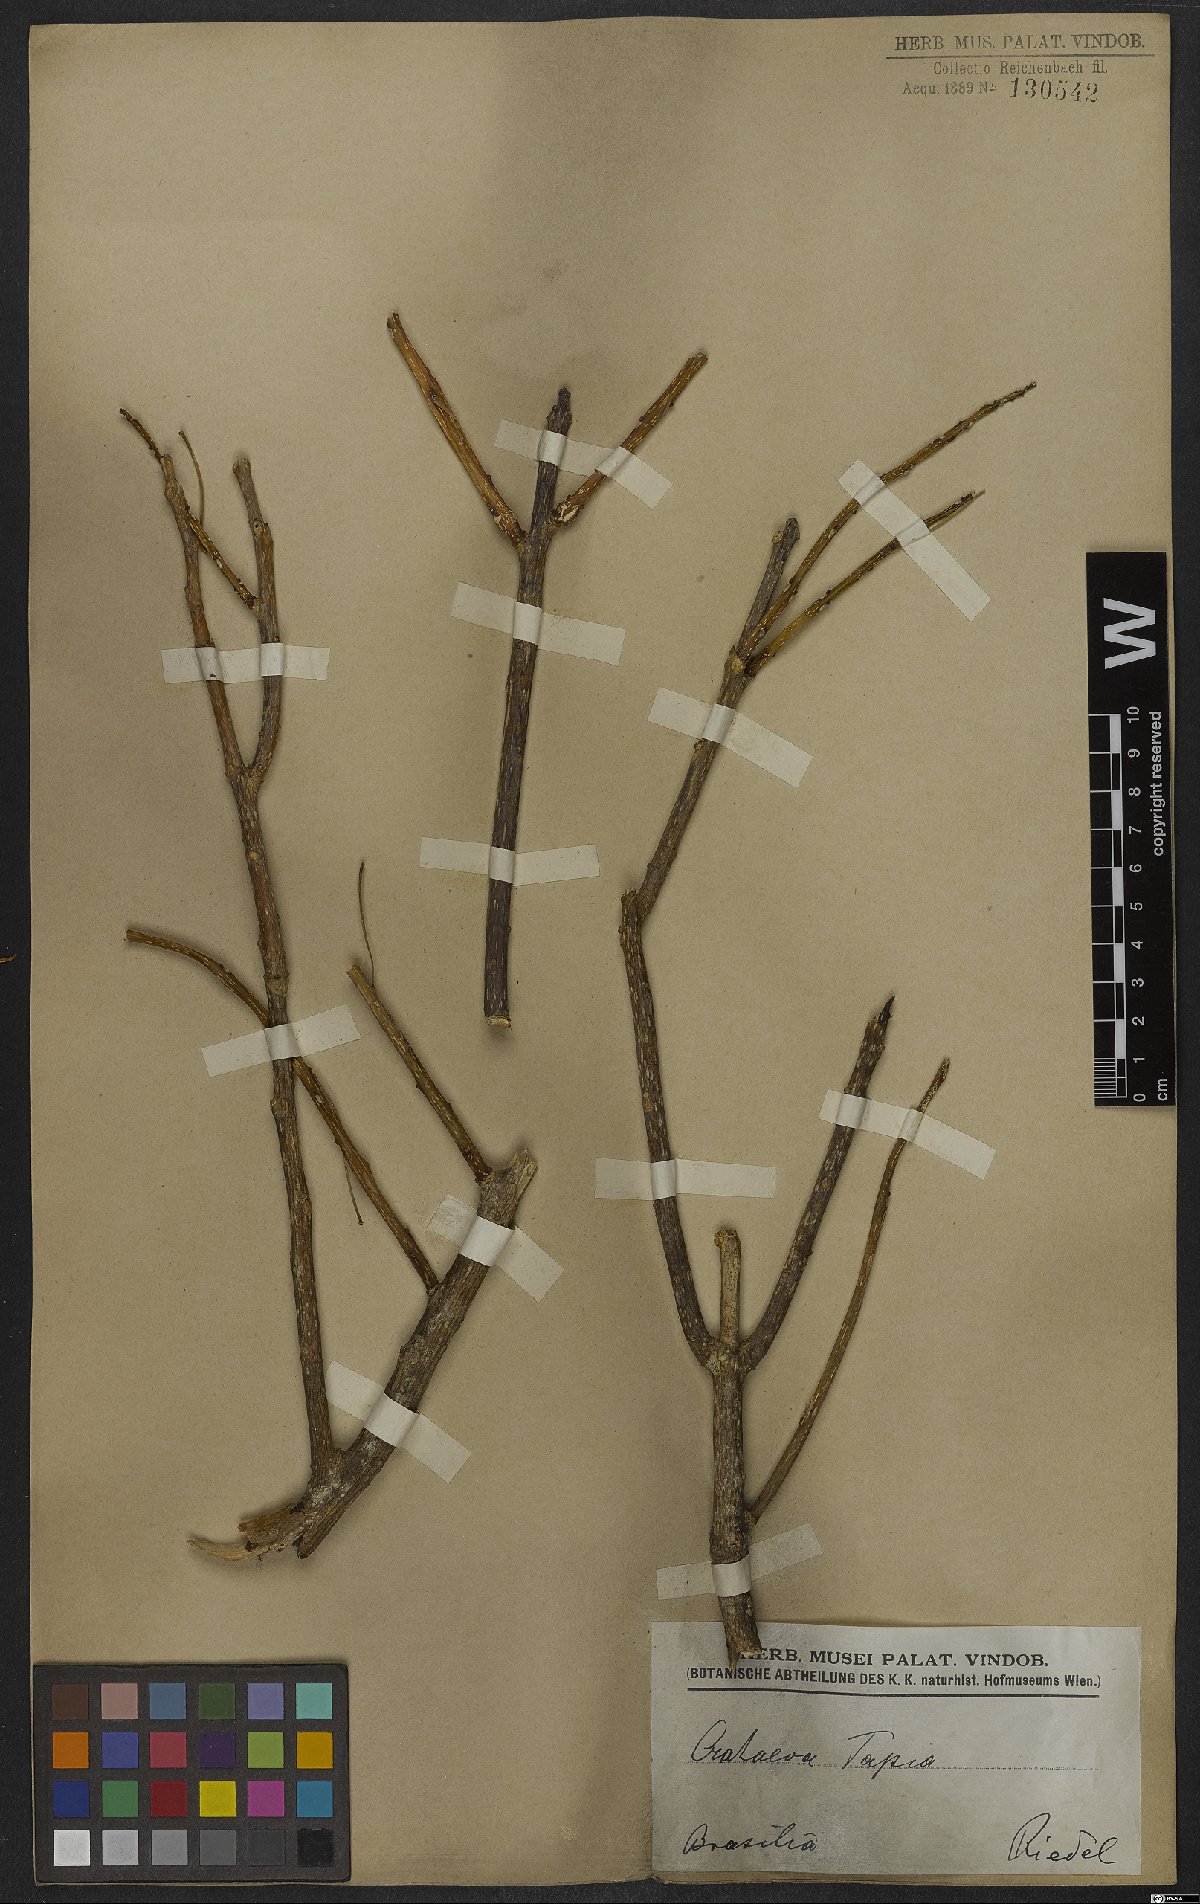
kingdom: Plantae
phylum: Tracheophyta
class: Magnoliopsida
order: Brassicales
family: Capparaceae
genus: Crateva
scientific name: Crateva tapia
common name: Garlic-pear
